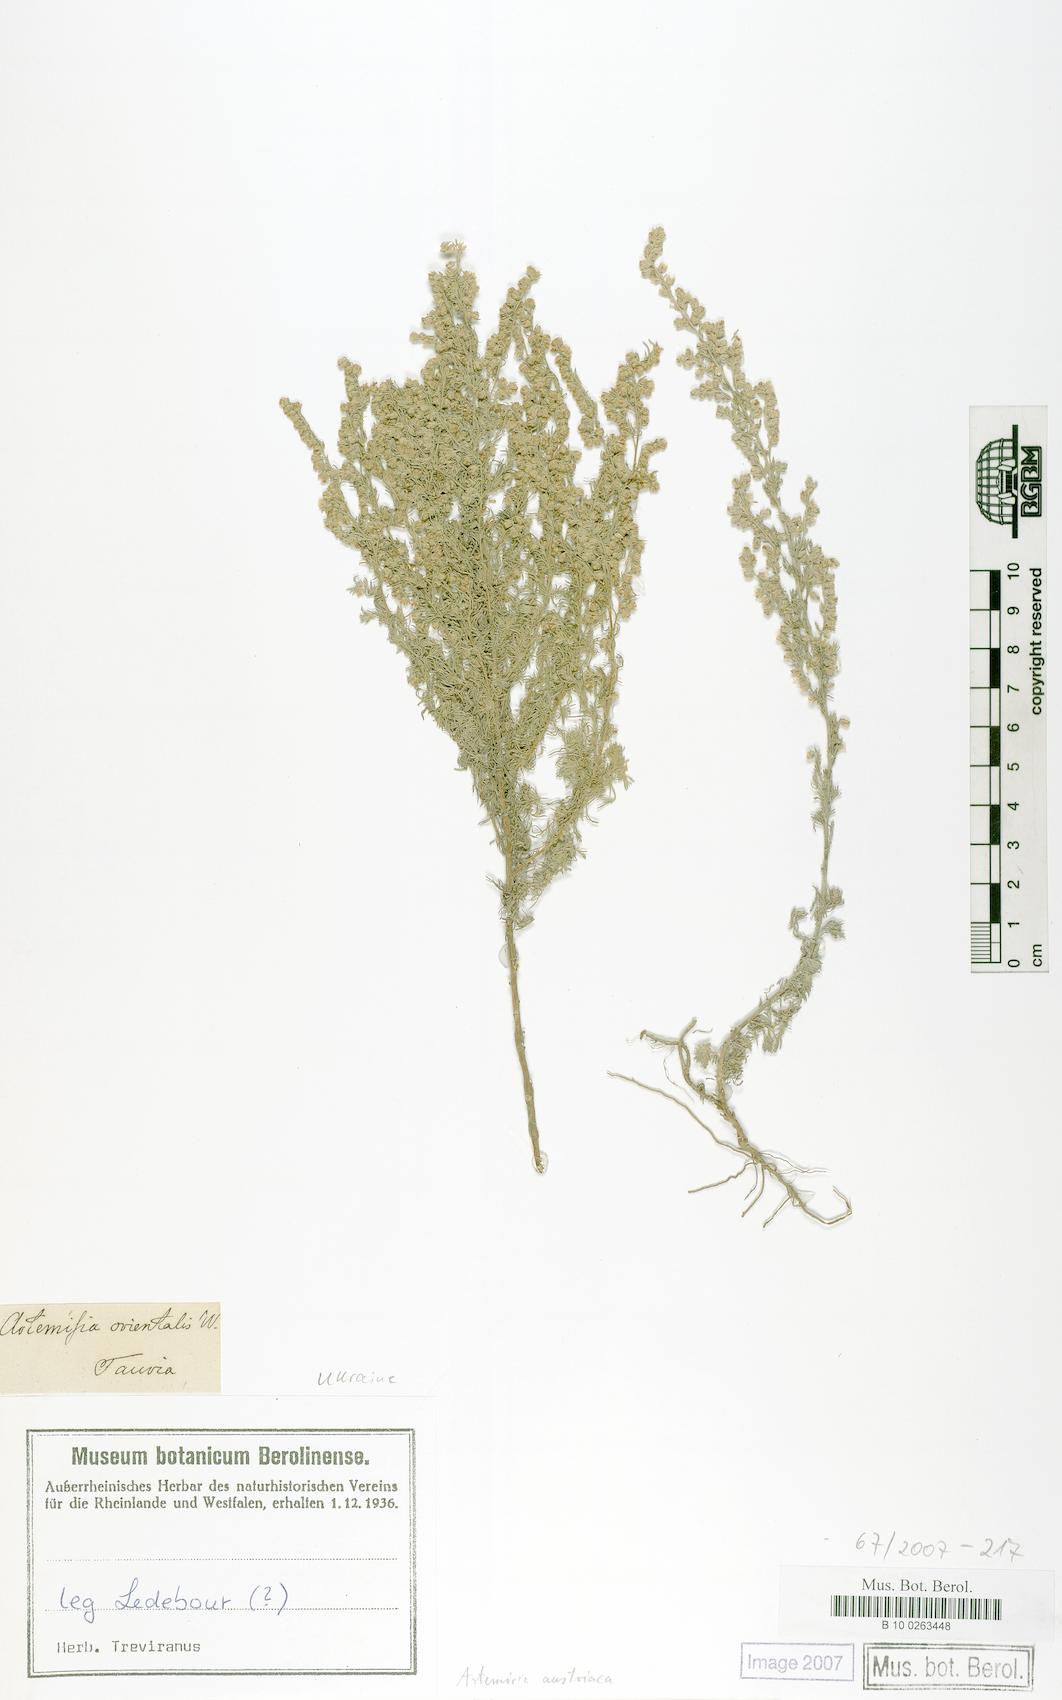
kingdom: Plantae
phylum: Tracheophyta
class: Magnoliopsida
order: Asterales
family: Asteraceae
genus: Artemisia
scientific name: Artemisia austriaca
